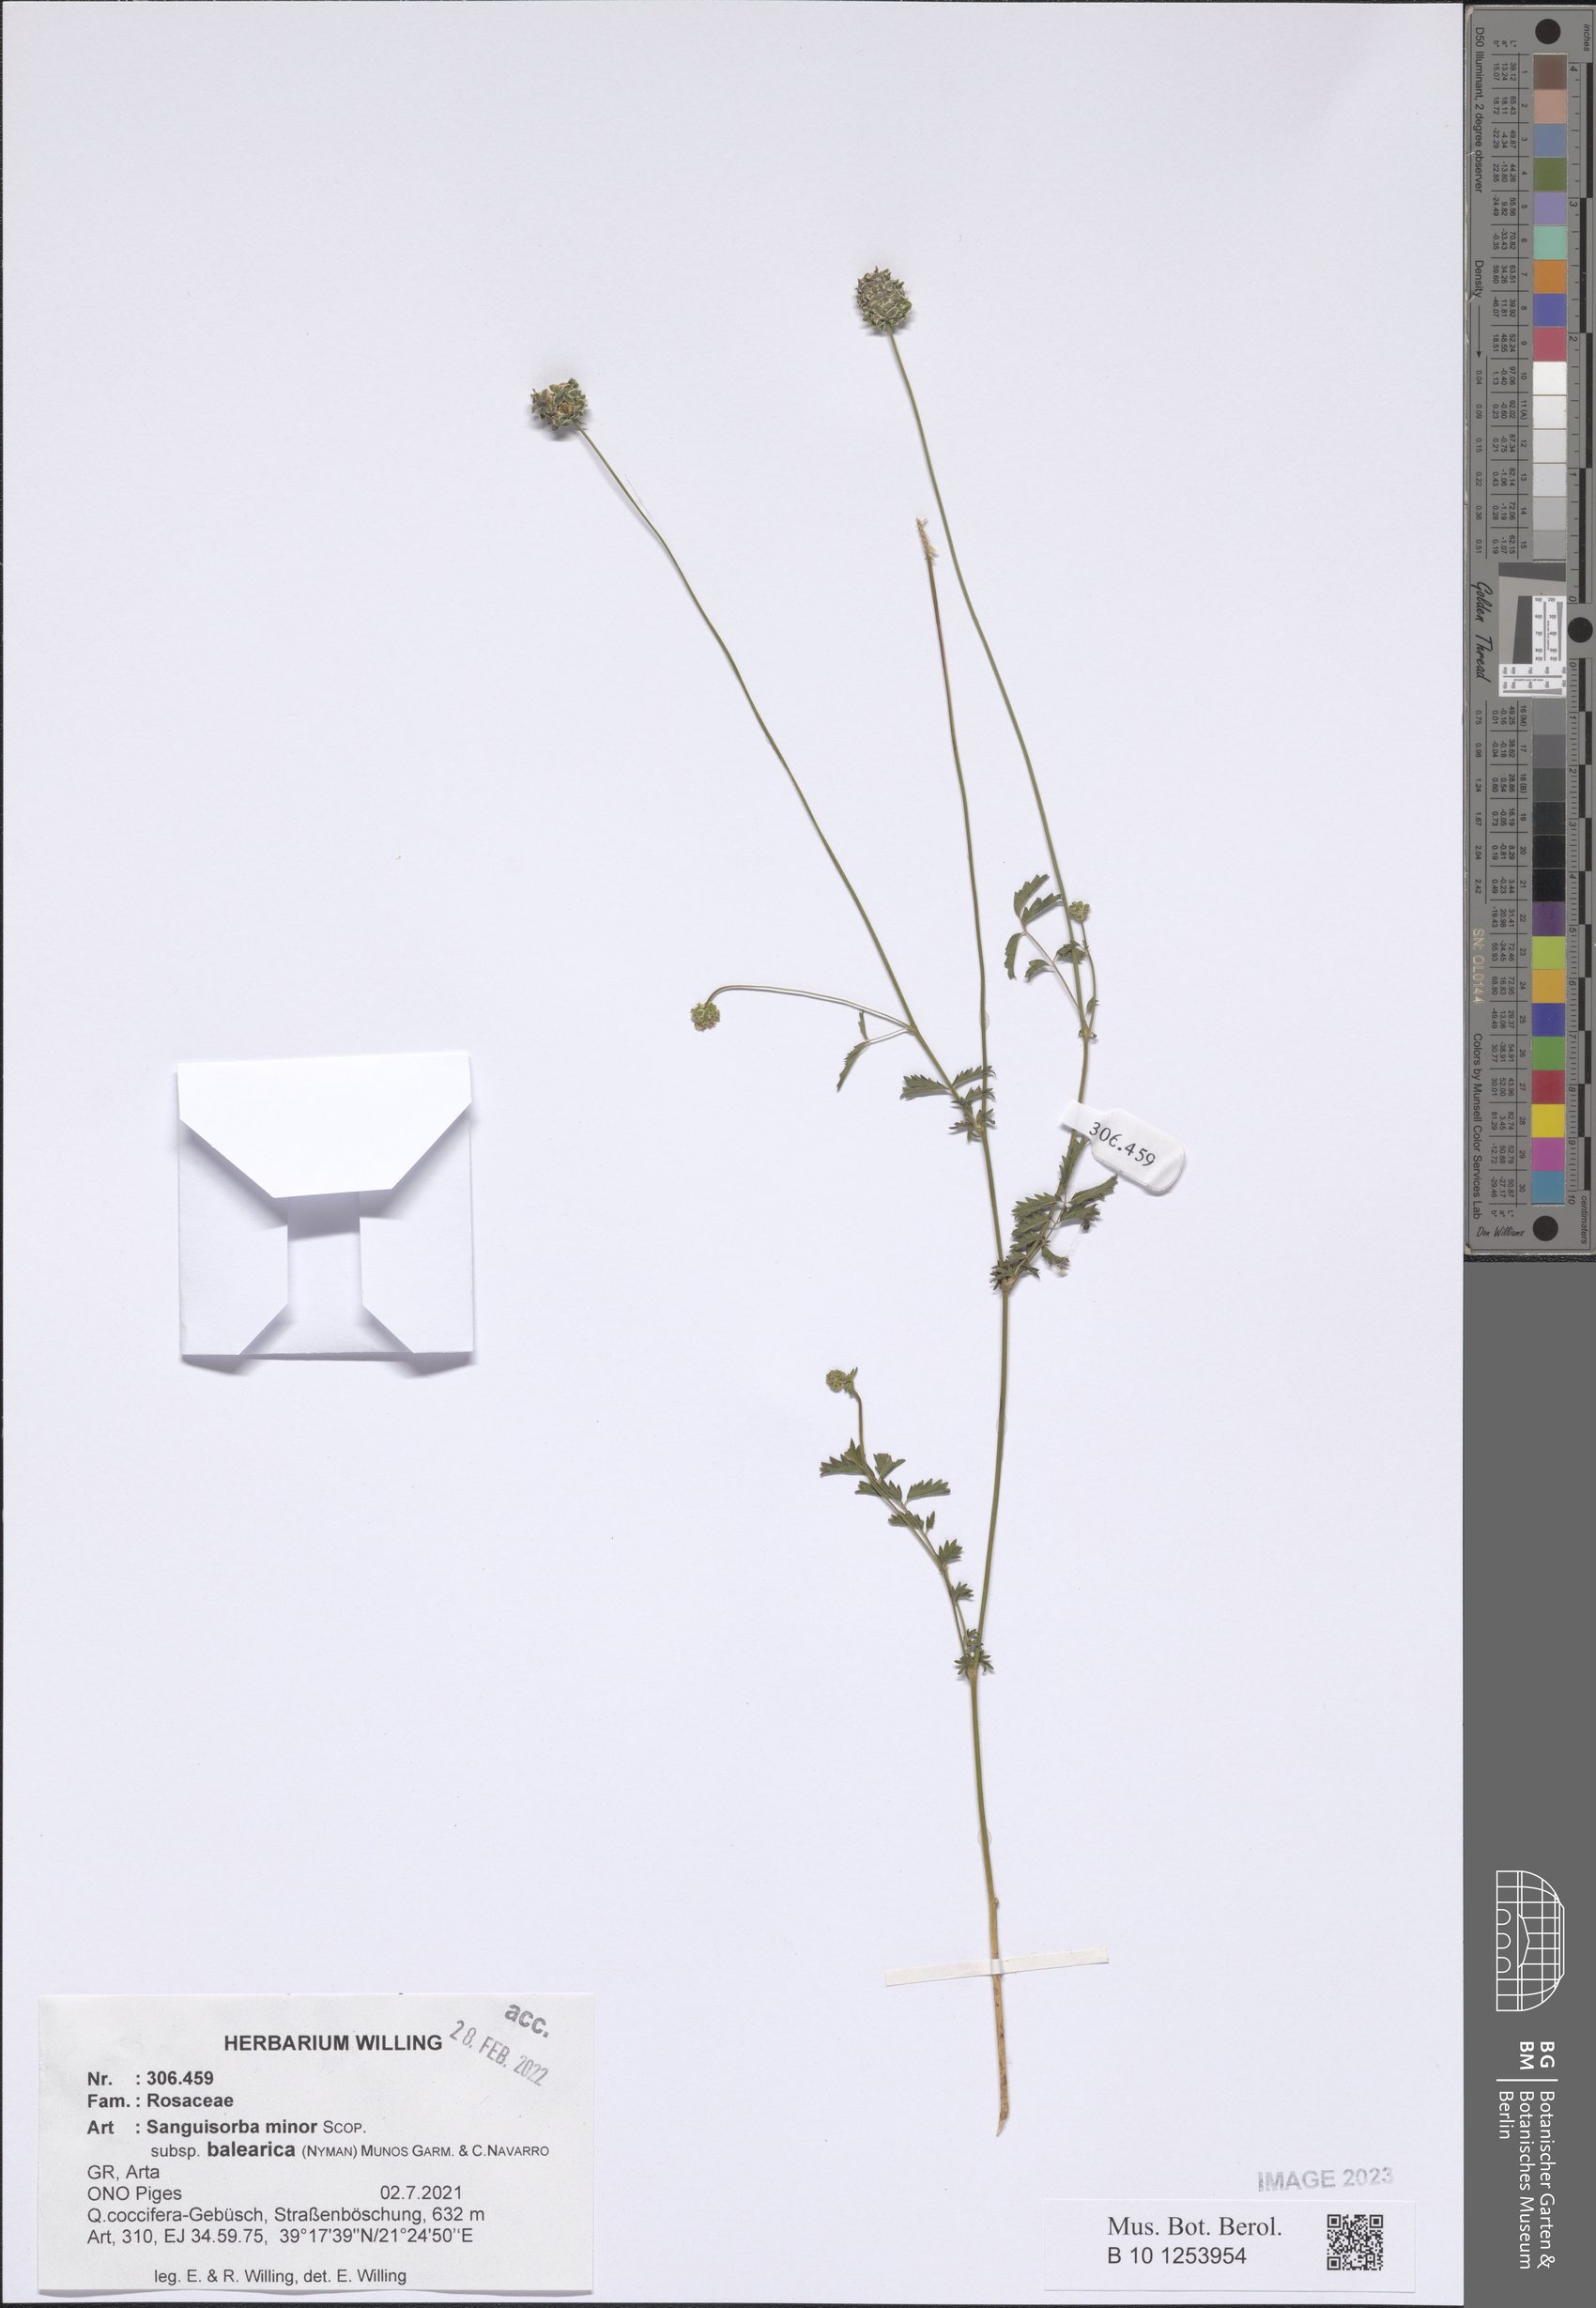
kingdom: Plantae
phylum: Tracheophyta
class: Magnoliopsida
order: Rosales
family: Rosaceae
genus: Poterium
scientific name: Poterium sanguisorba
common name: Salad burnet
